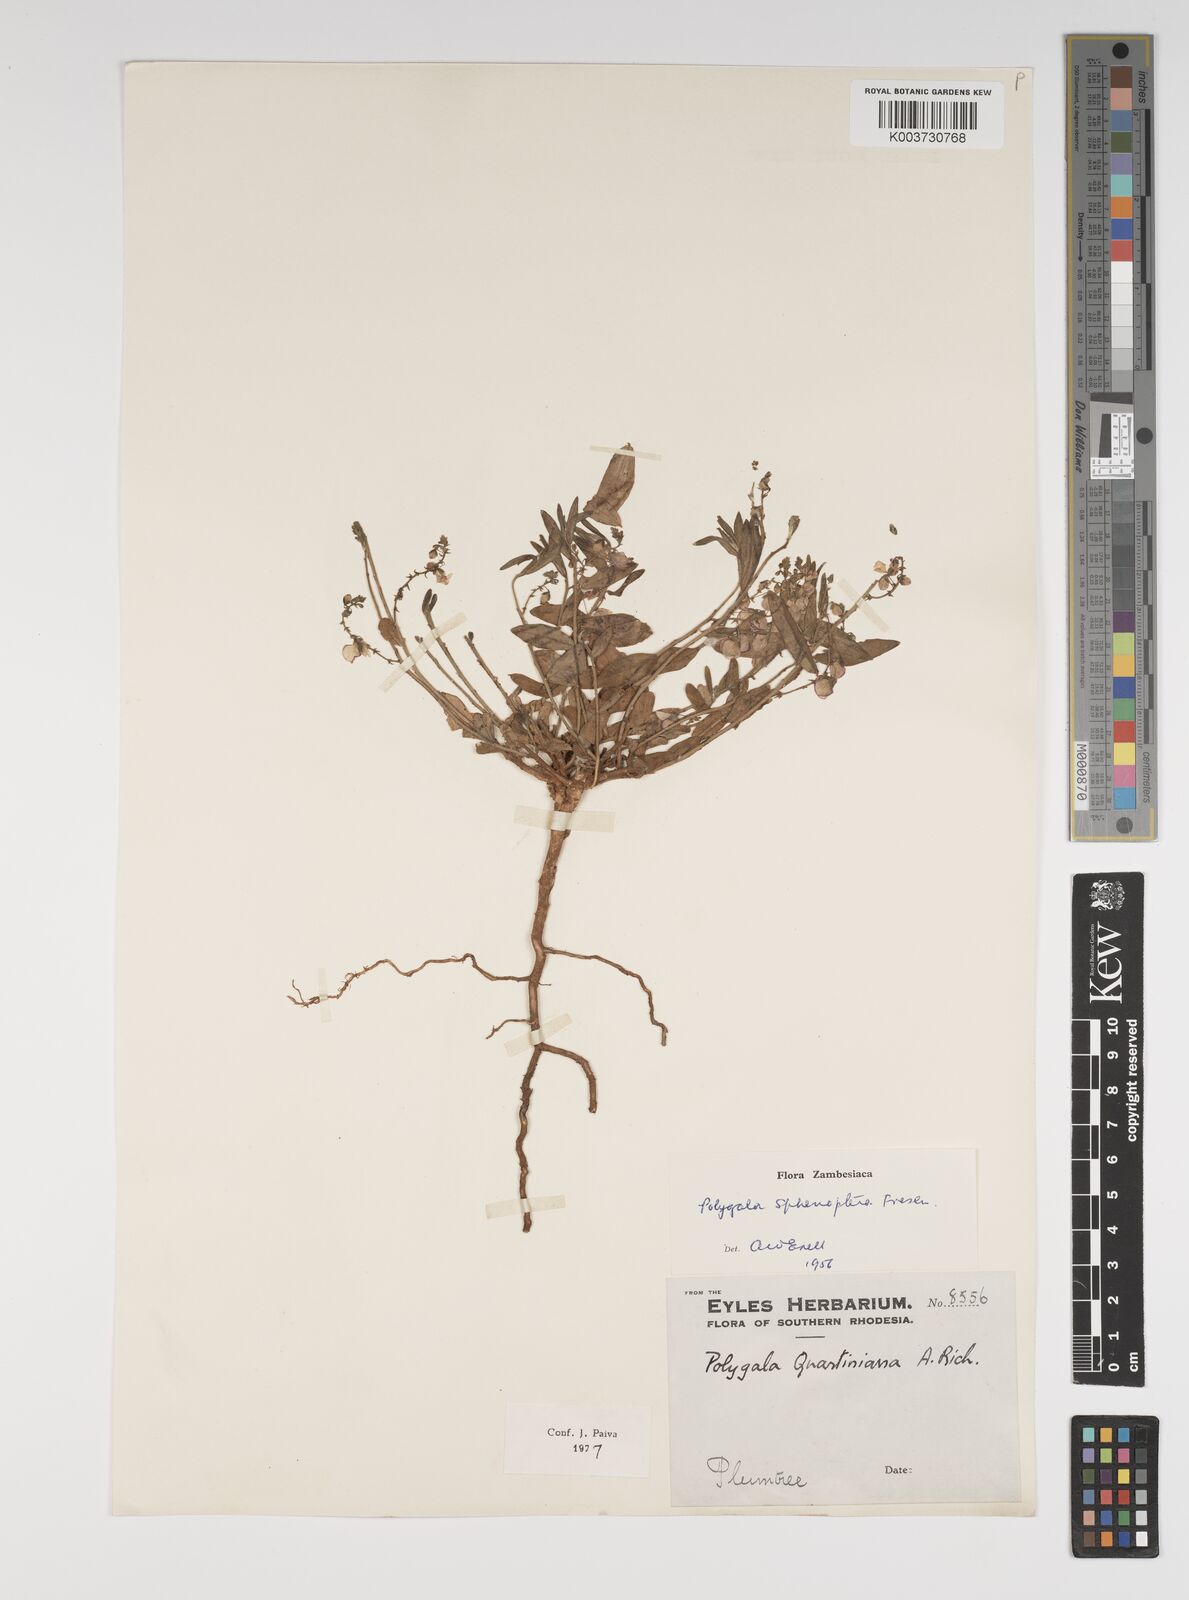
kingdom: Plantae
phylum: Tracheophyta
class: Magnoliopsida
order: Fabales
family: Polygalaceae
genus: Polygala
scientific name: Polygala sphenoptera
